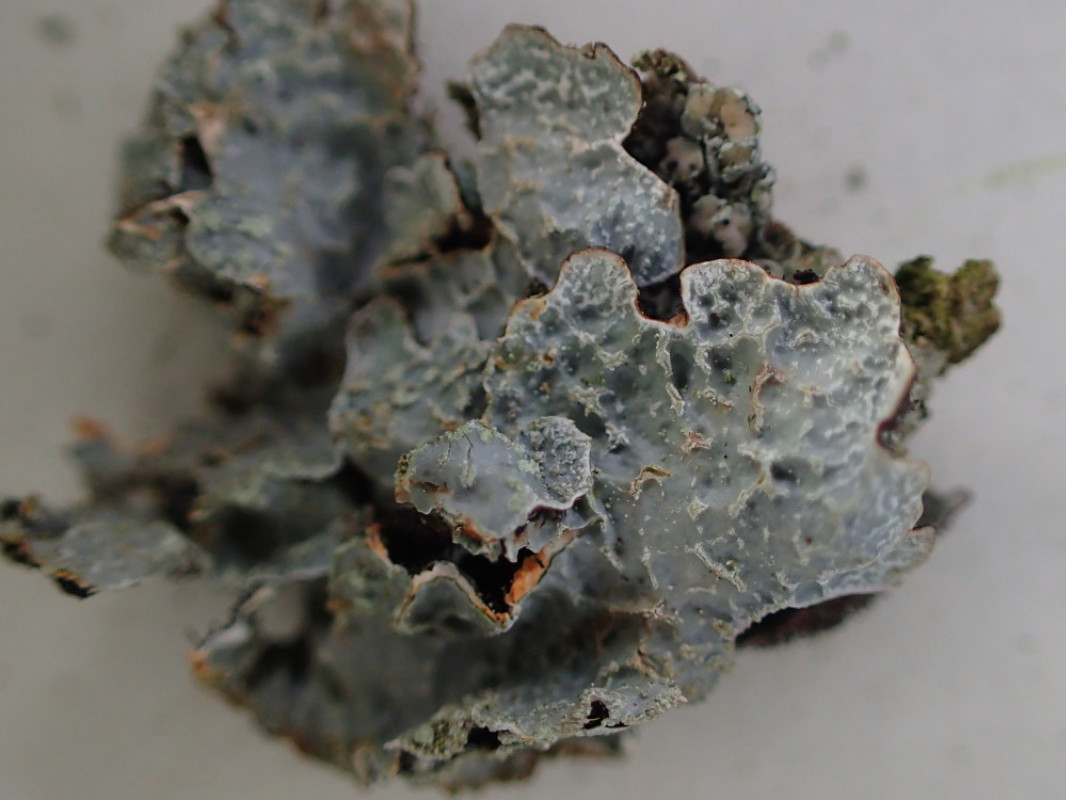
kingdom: Fungi
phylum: Ascomycota
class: Lecanoromycetes
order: Lecanorales
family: Parmeliaceae
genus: Parmelia
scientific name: Parmelia sulcata
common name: rynket skållav
